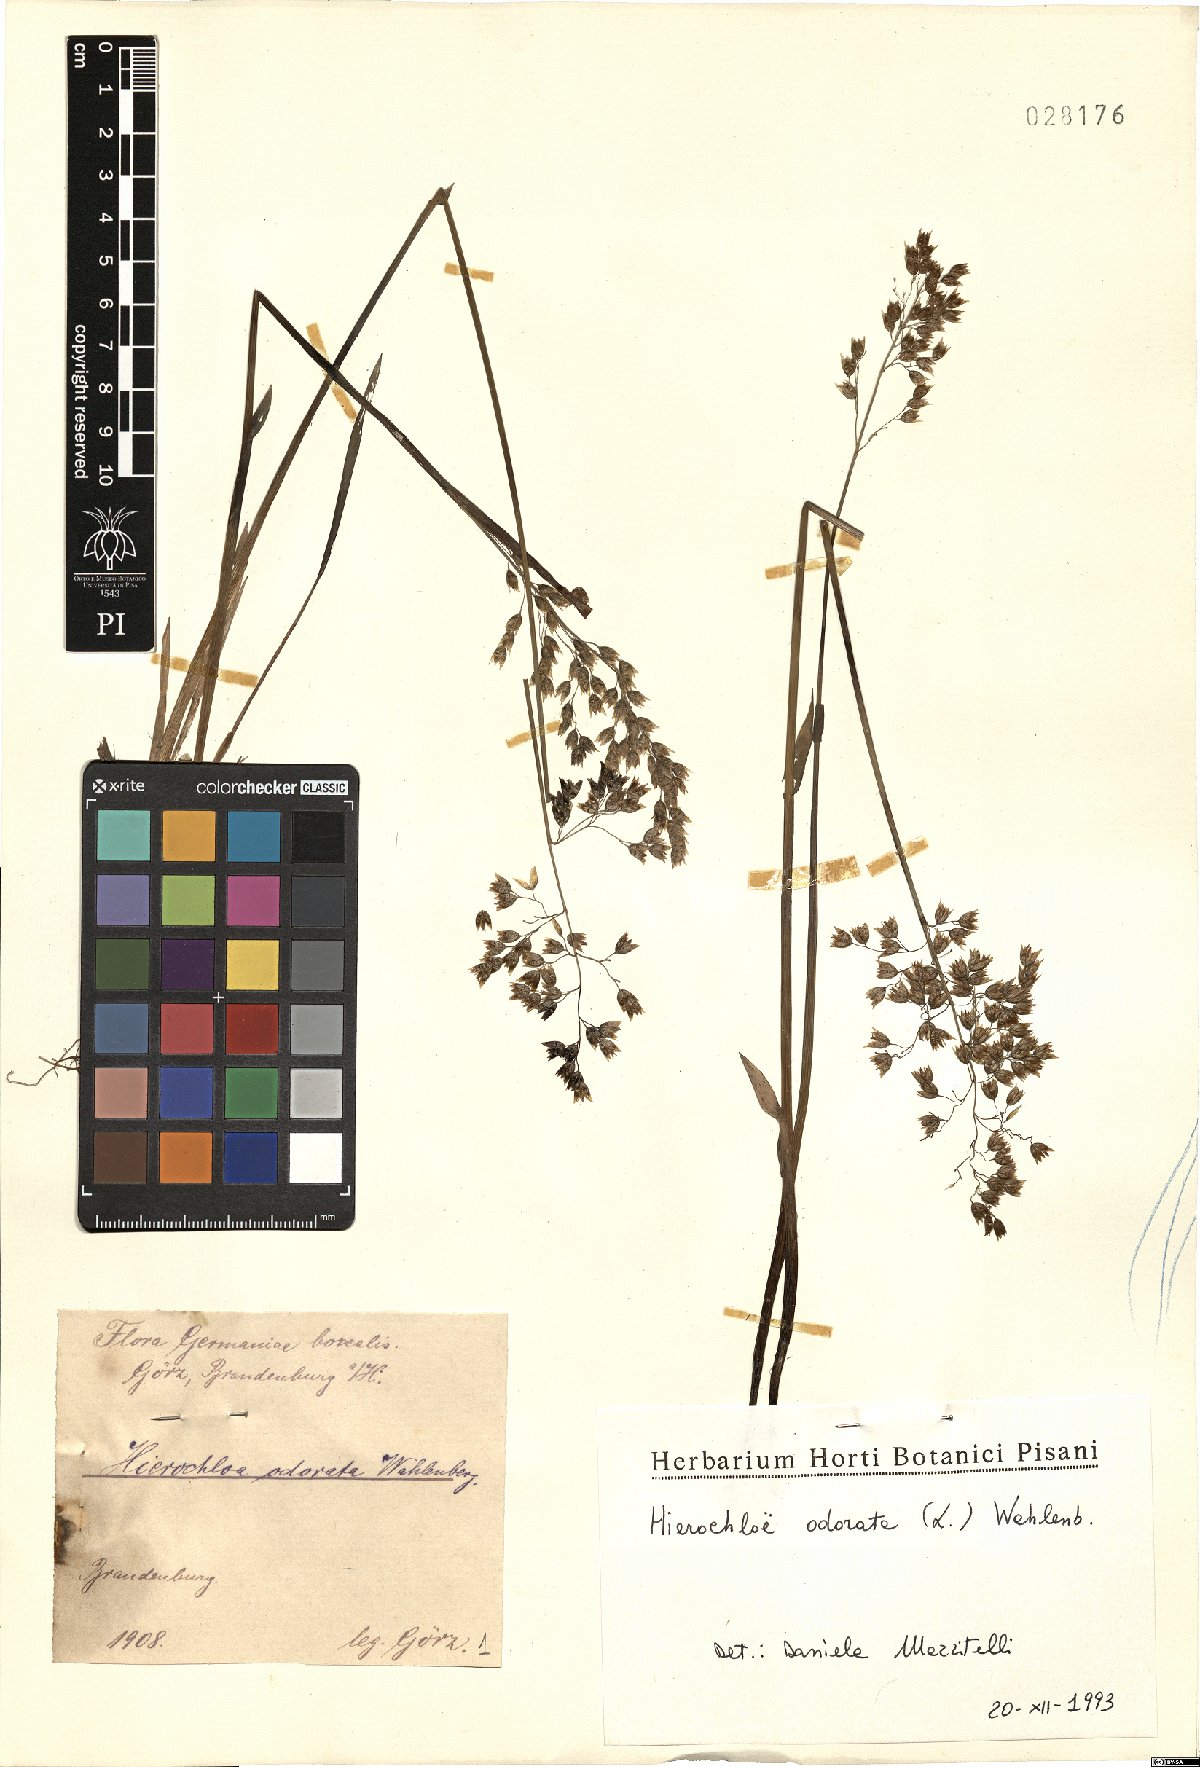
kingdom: Plantae
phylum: Tracheophyta
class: Liliopsida
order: Poales
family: Poaceae
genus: Anthoxanthum
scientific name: Anthoxanthum nitens
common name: Holy grass
